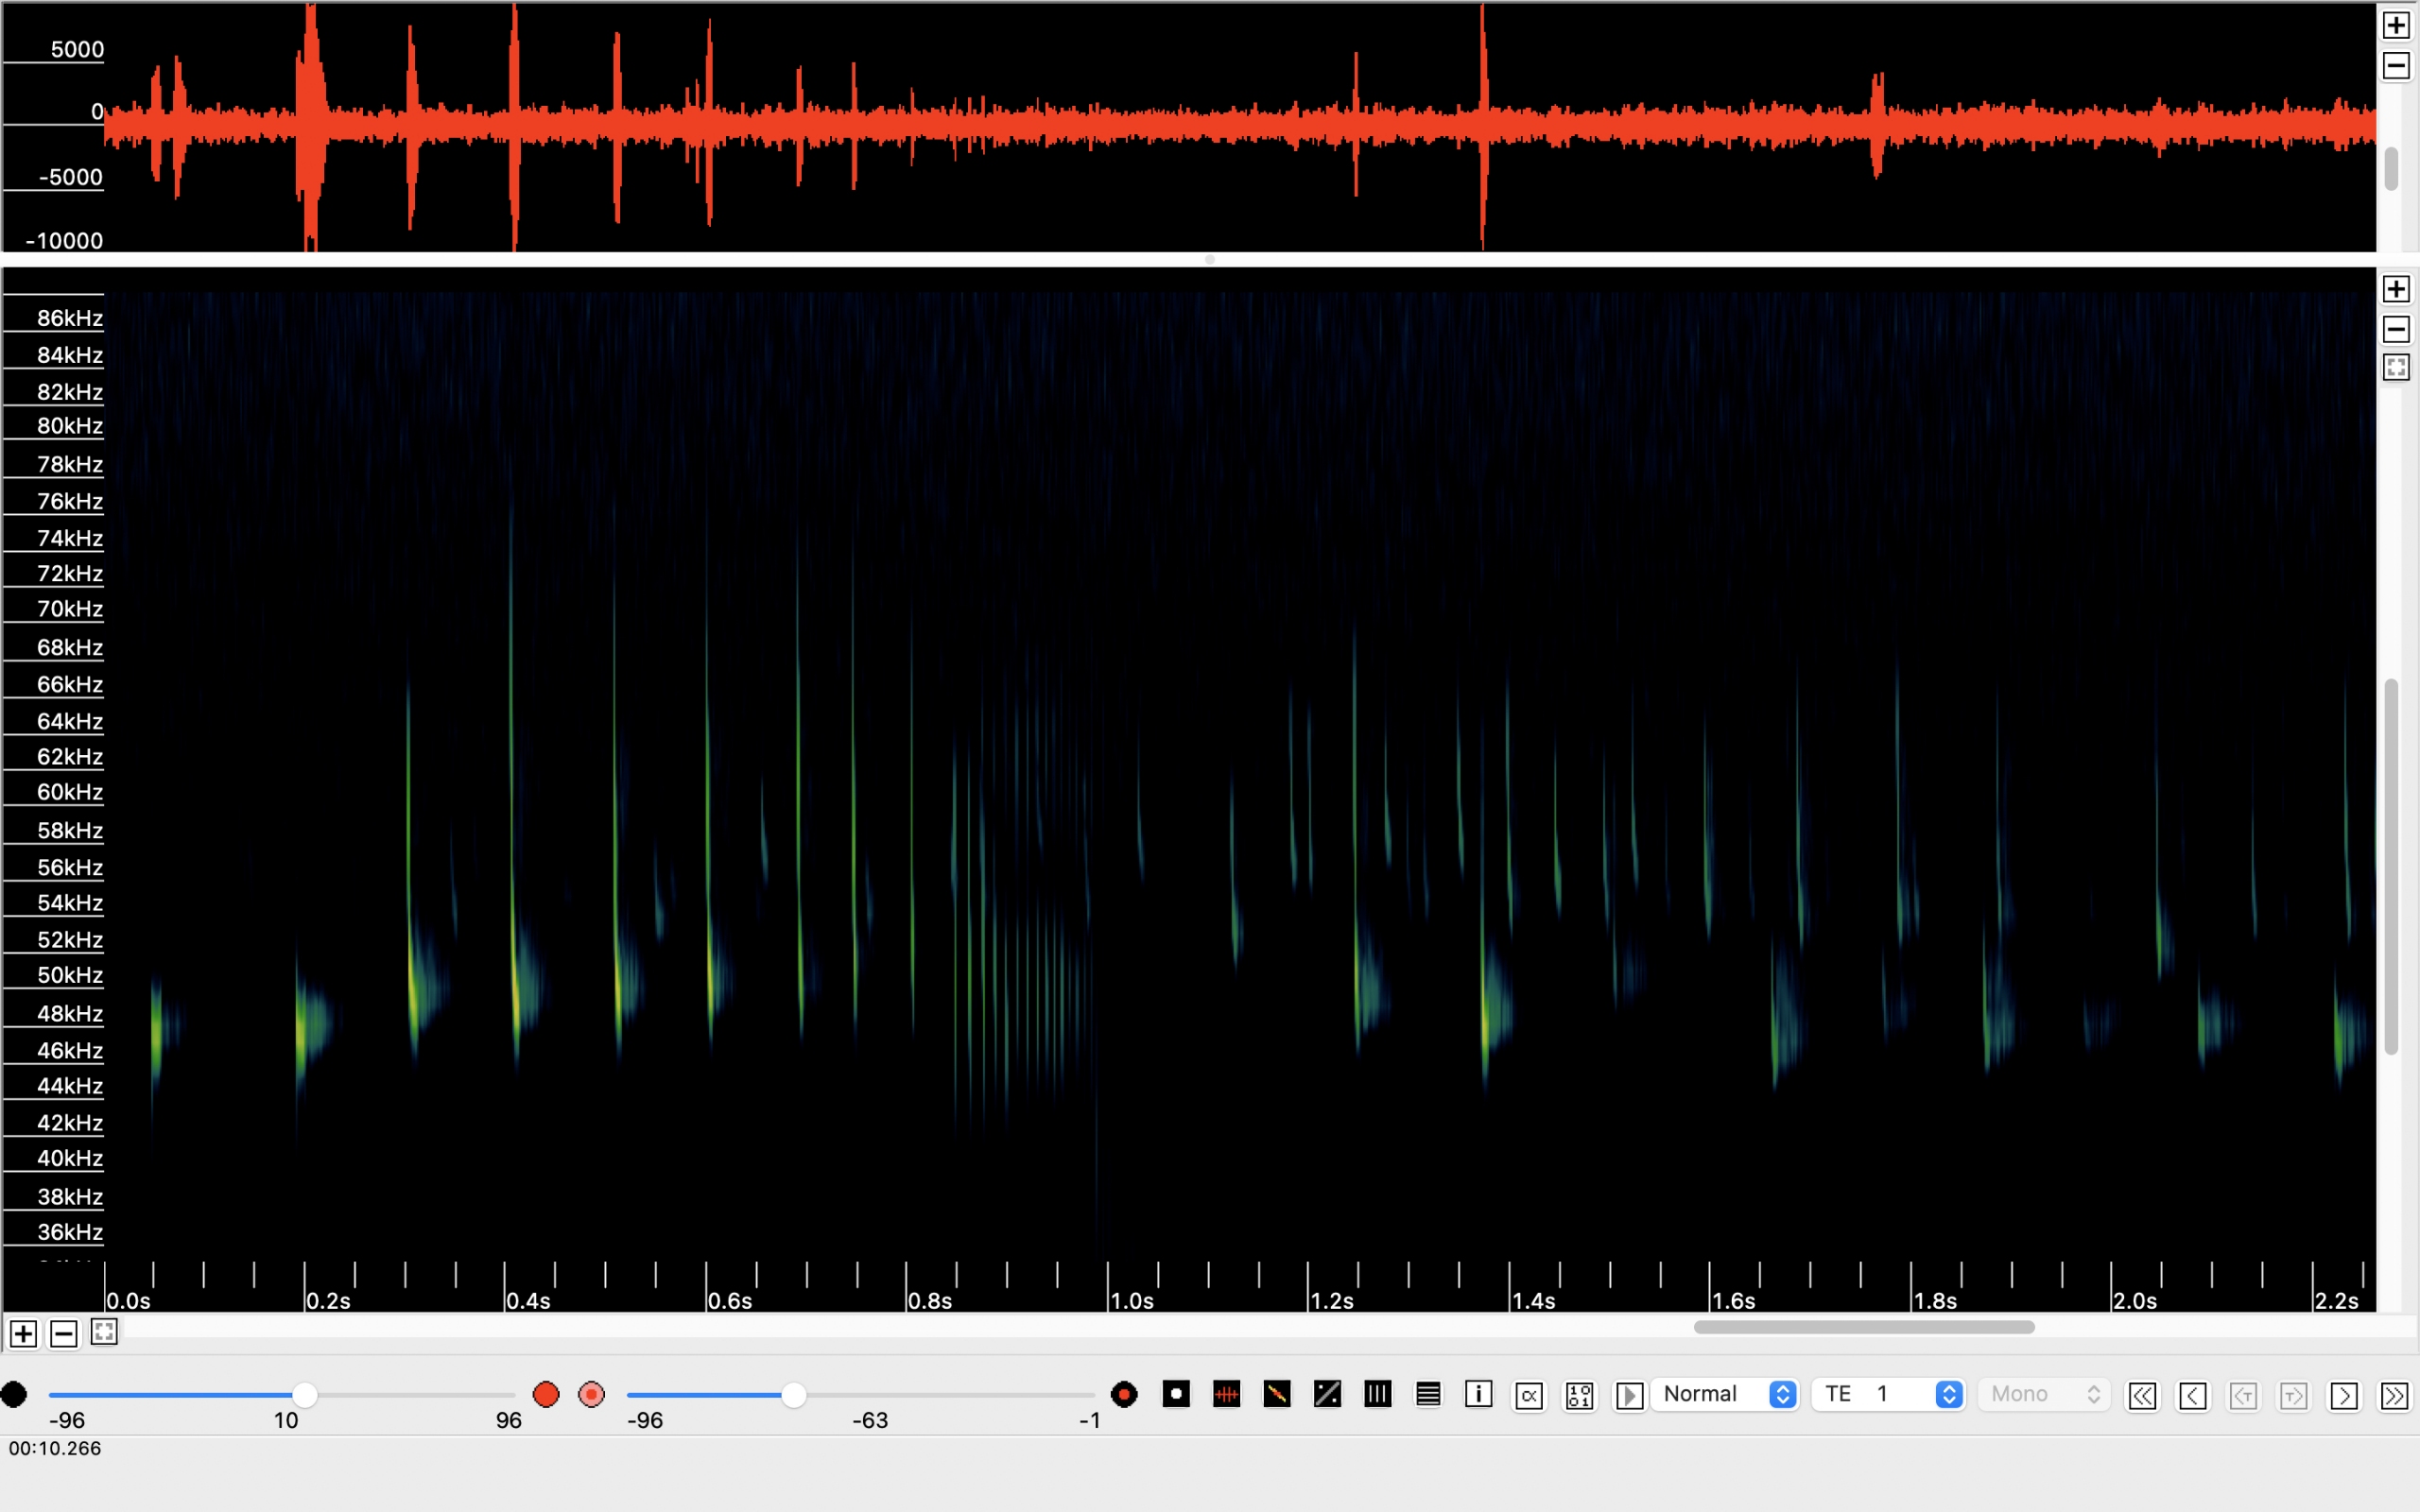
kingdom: Animalia
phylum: Chordata
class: Mammalia
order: Chiroptera
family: Vespertilionidae
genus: Pipistrellus
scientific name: Pipistrellus pipistrellus
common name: Pipistrelflagermus
